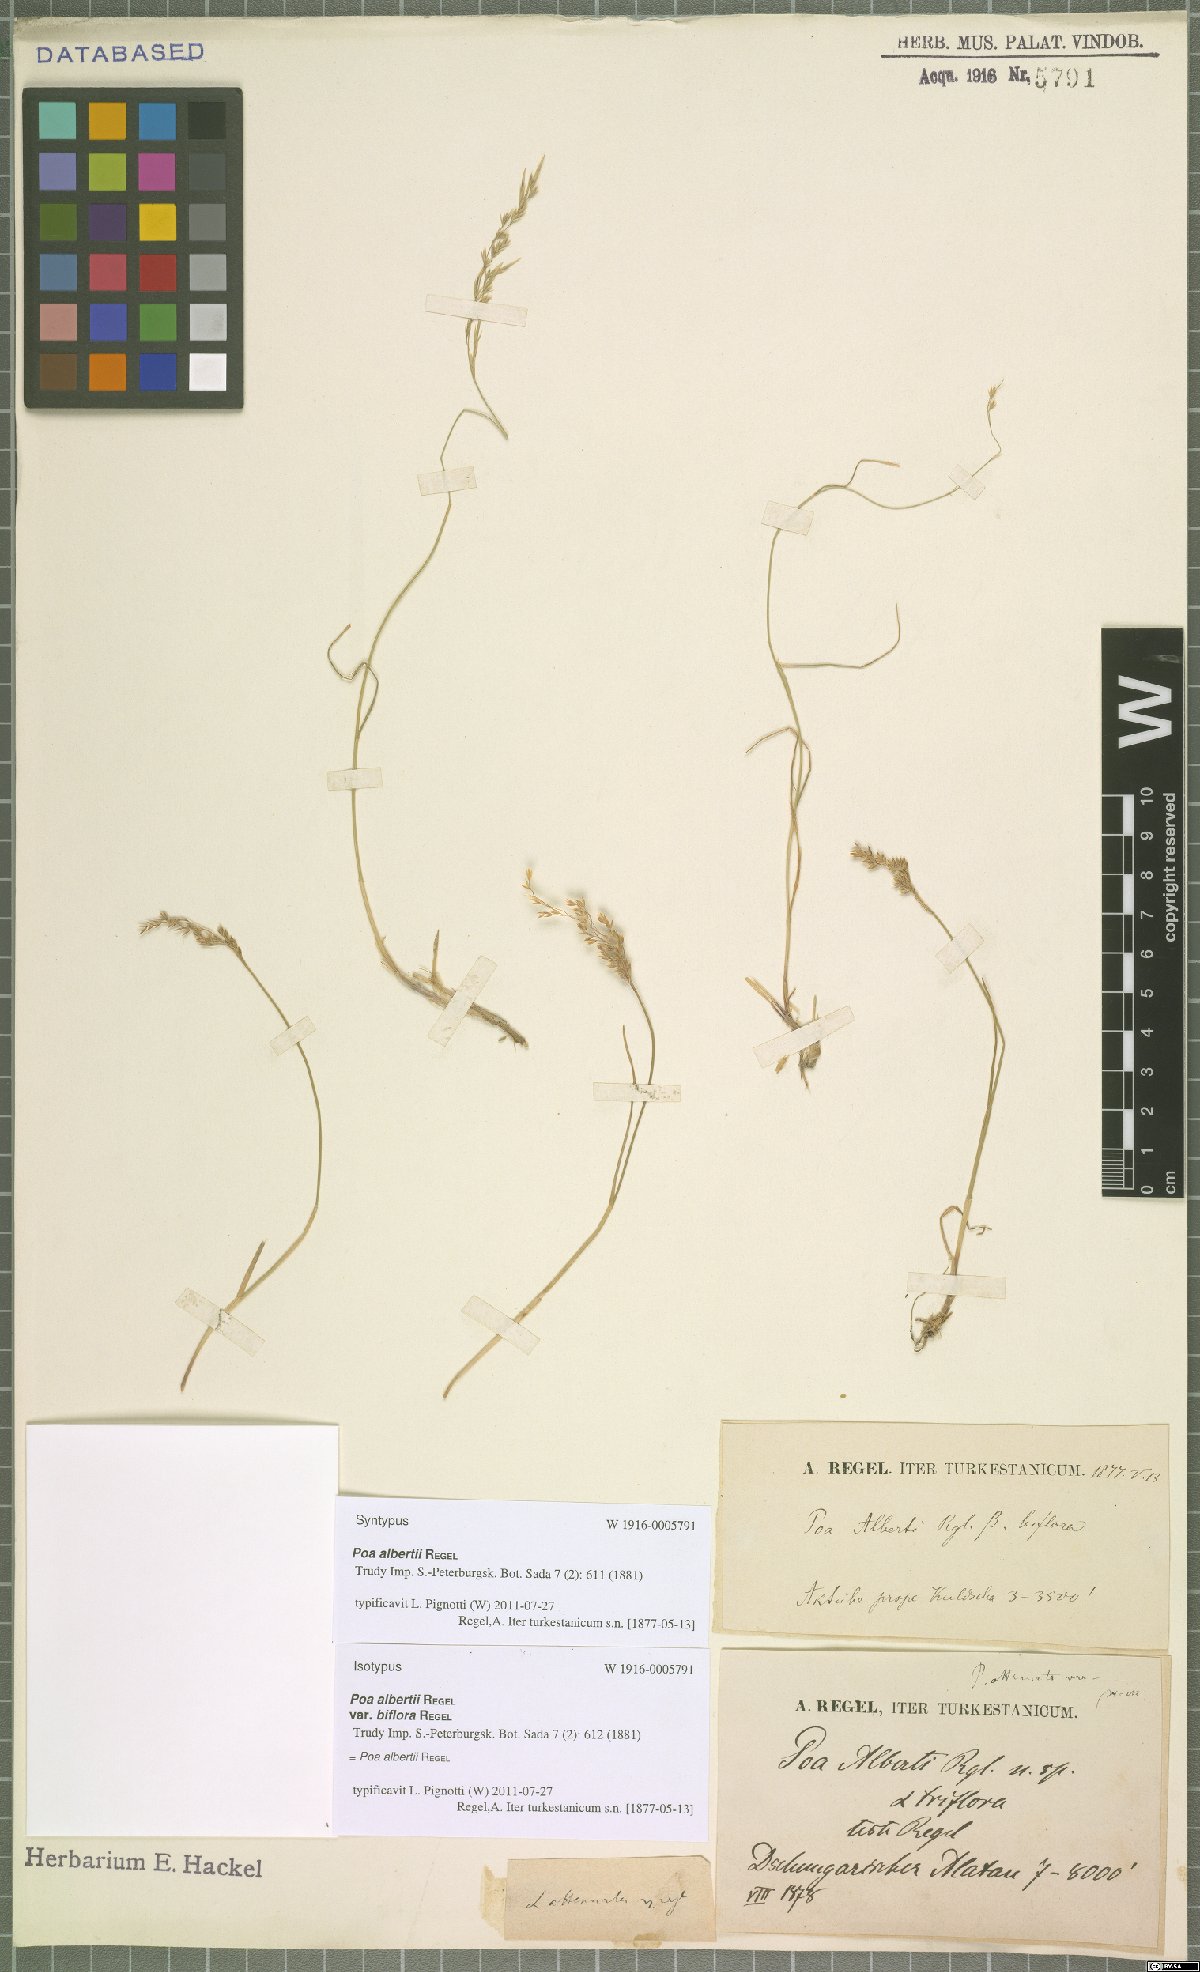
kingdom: Plantae
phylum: Tracheophyta
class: Liliopsida
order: Poales
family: Poaceae
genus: Poa
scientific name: Poa alberti
